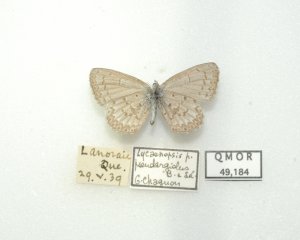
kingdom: Animalia
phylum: Arthropoda
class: Insecta
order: Lepidoptera
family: Lycaenidae
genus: Celastrina
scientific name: Celastrina lucia
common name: Northern Spring Azure
